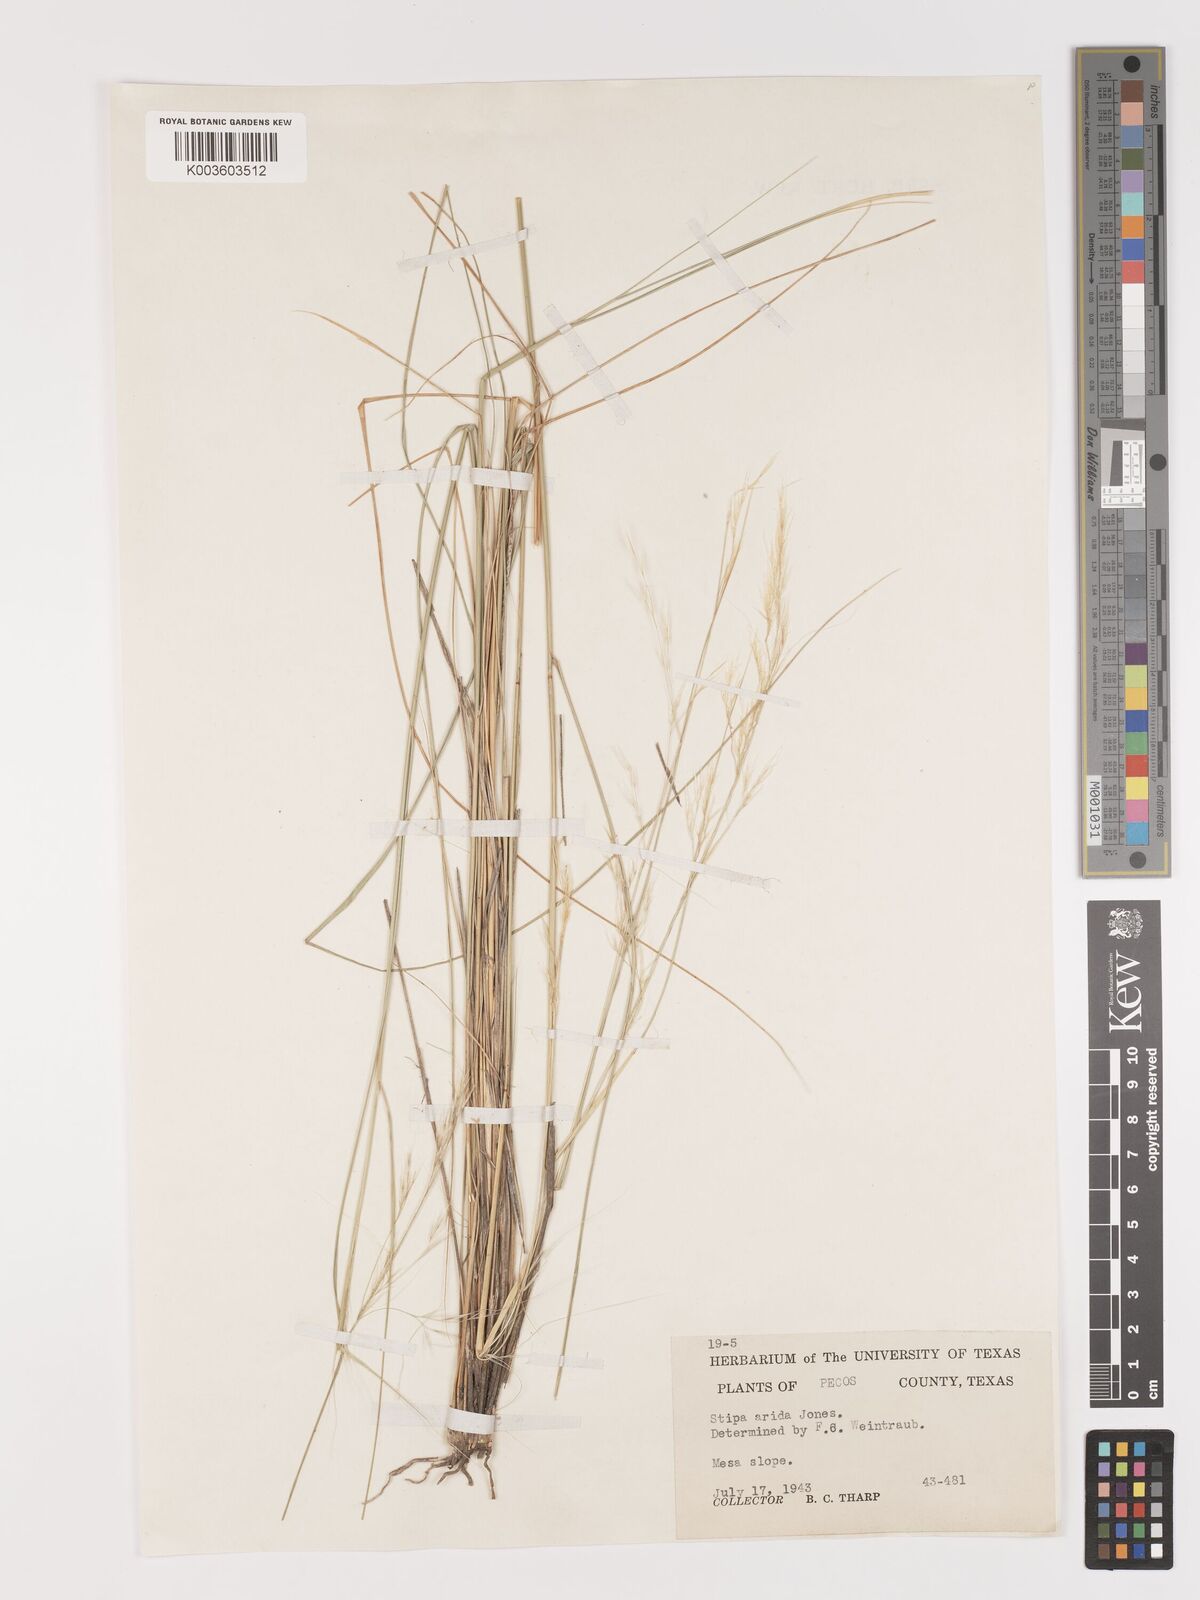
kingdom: Plantae
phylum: Tracheophyta
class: Liliopsida
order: Poales
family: Poaceae
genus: Eriocoma
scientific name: Eriocoma arida
